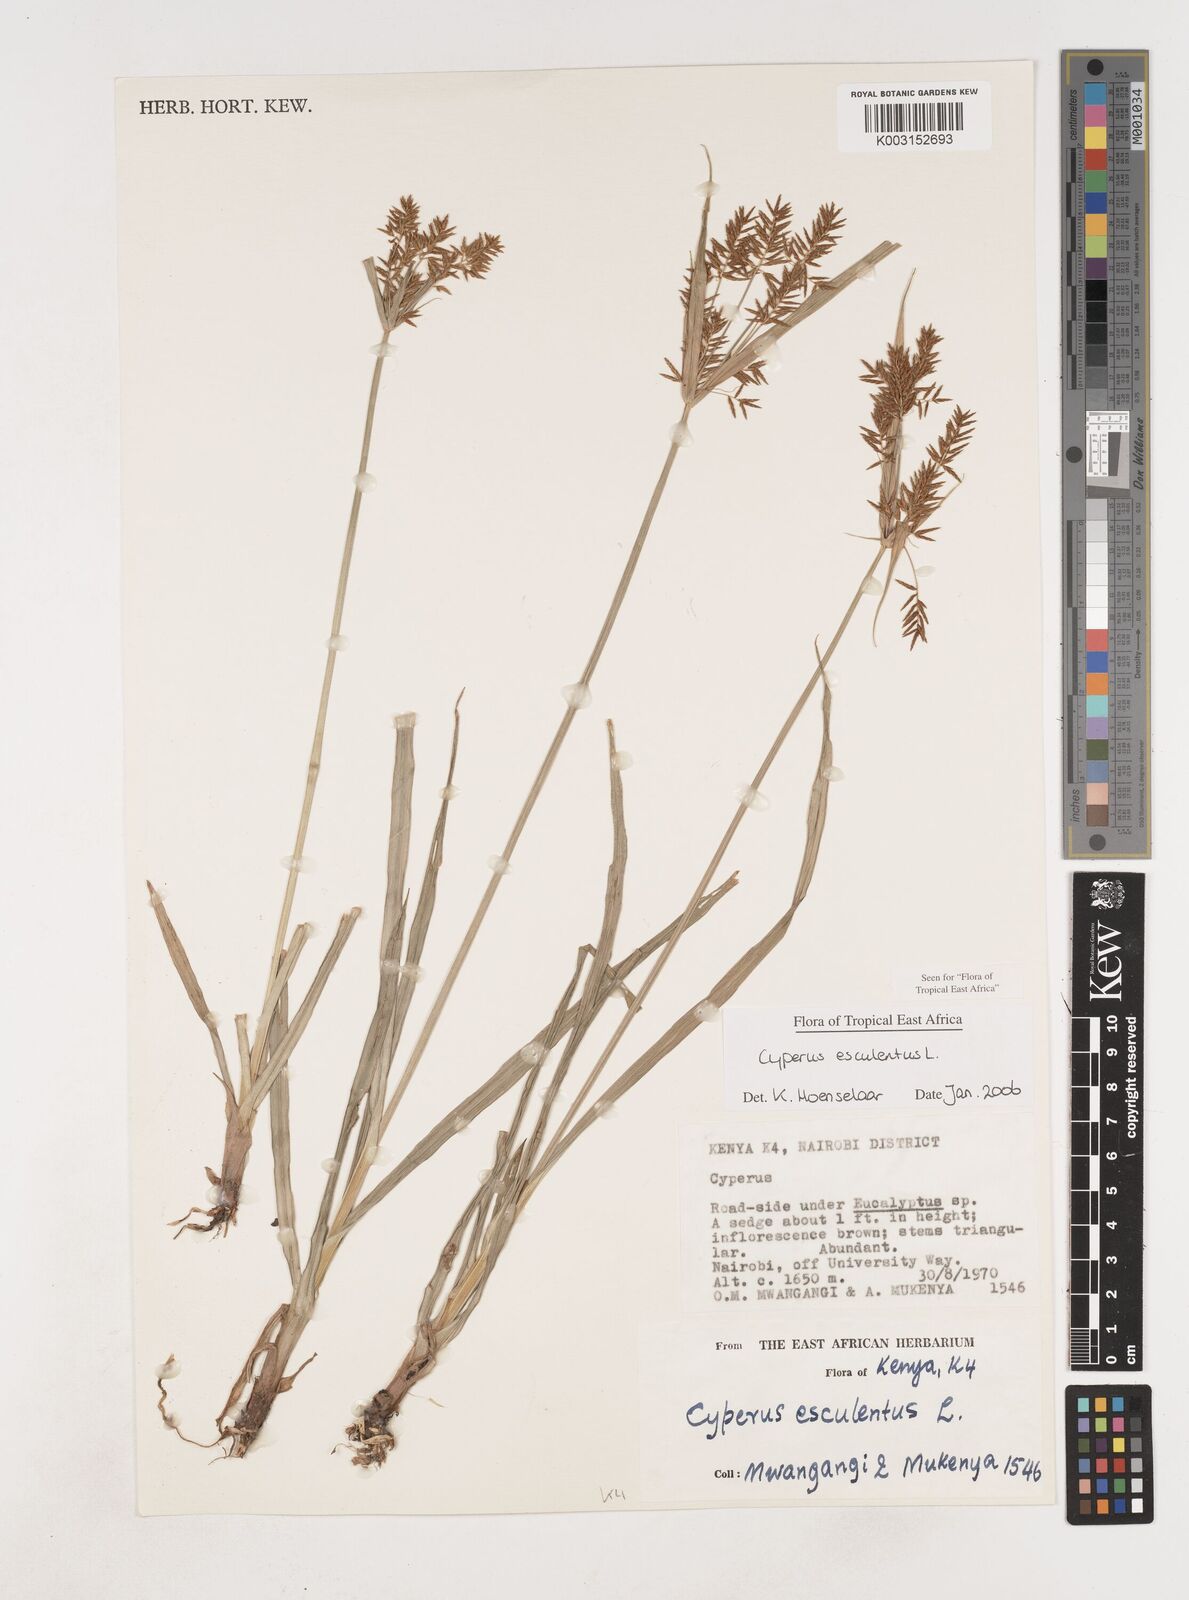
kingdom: Plantae
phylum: Tracheophyta
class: Liliopsida
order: Poales
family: Cyperaceae
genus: Cyperus
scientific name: Cyperus esculentus
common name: Yellow nutsedge
